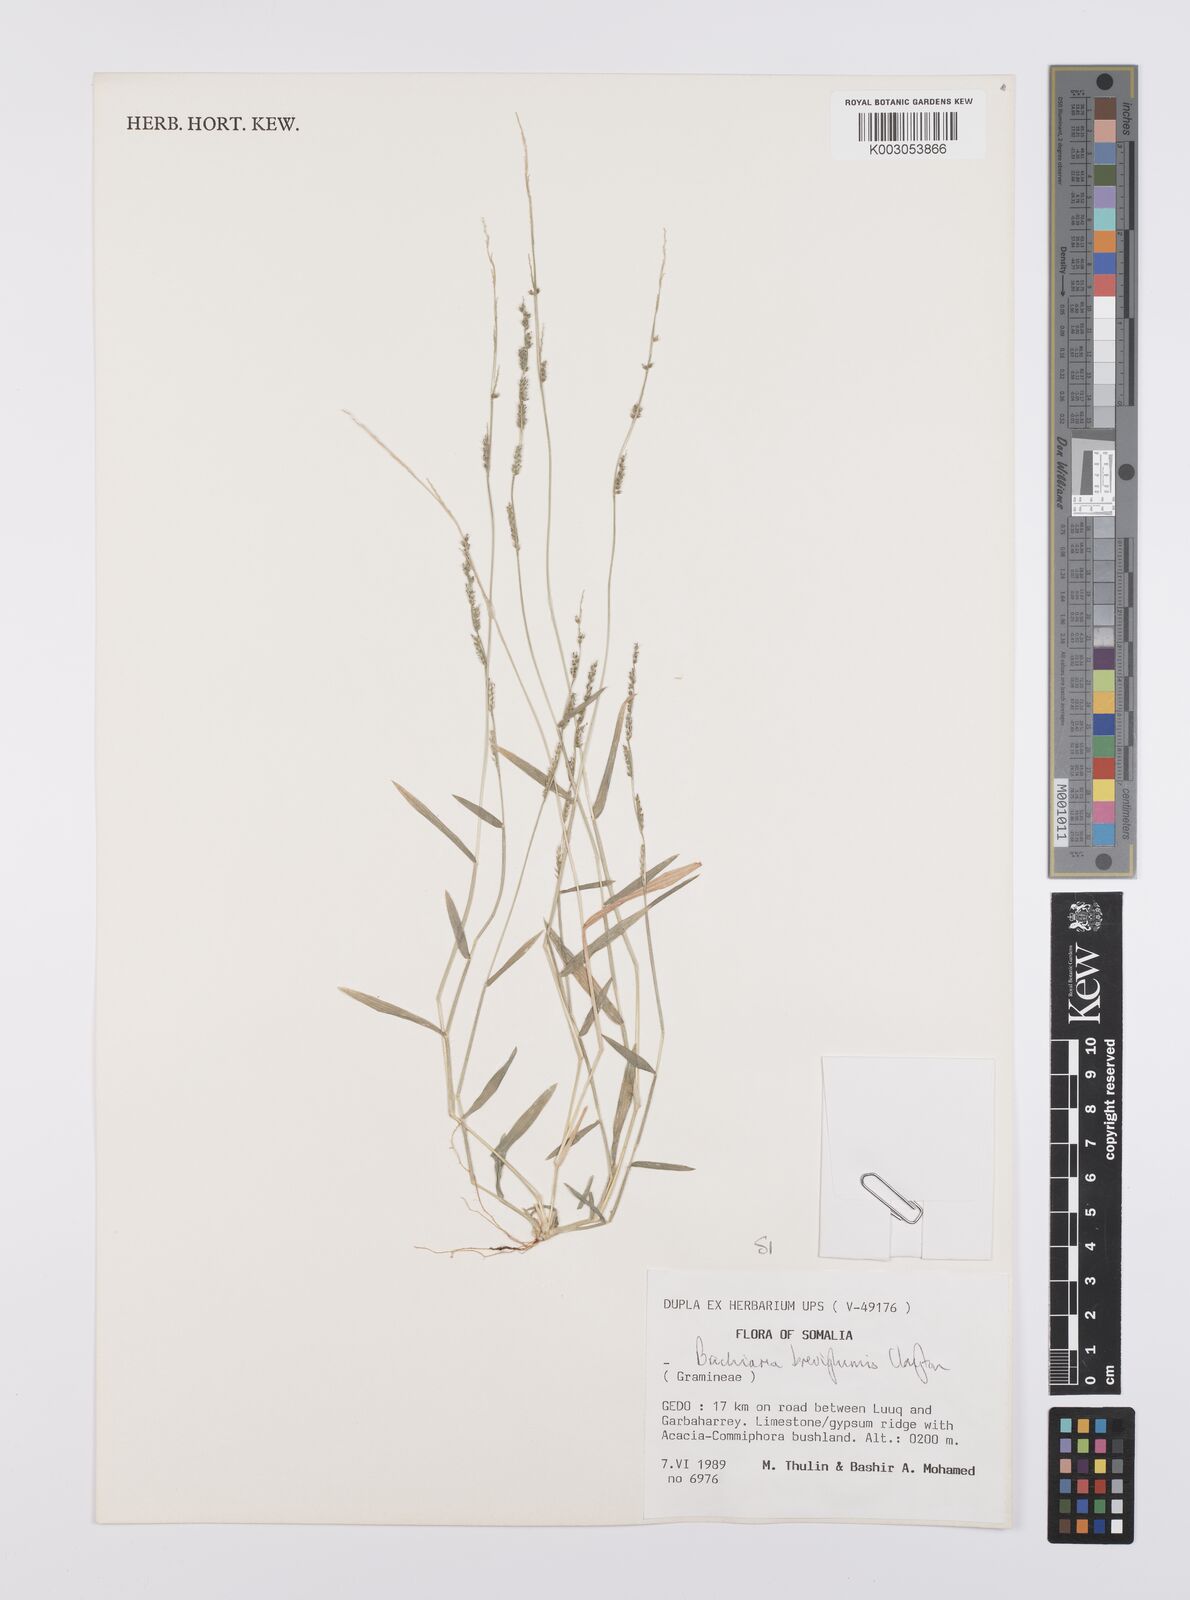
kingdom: Plantae
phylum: Tracheophyta
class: Liliopsida
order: Poales
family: Poaceae
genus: Urochloa
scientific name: Urochloa Brachiaria breviglumis
